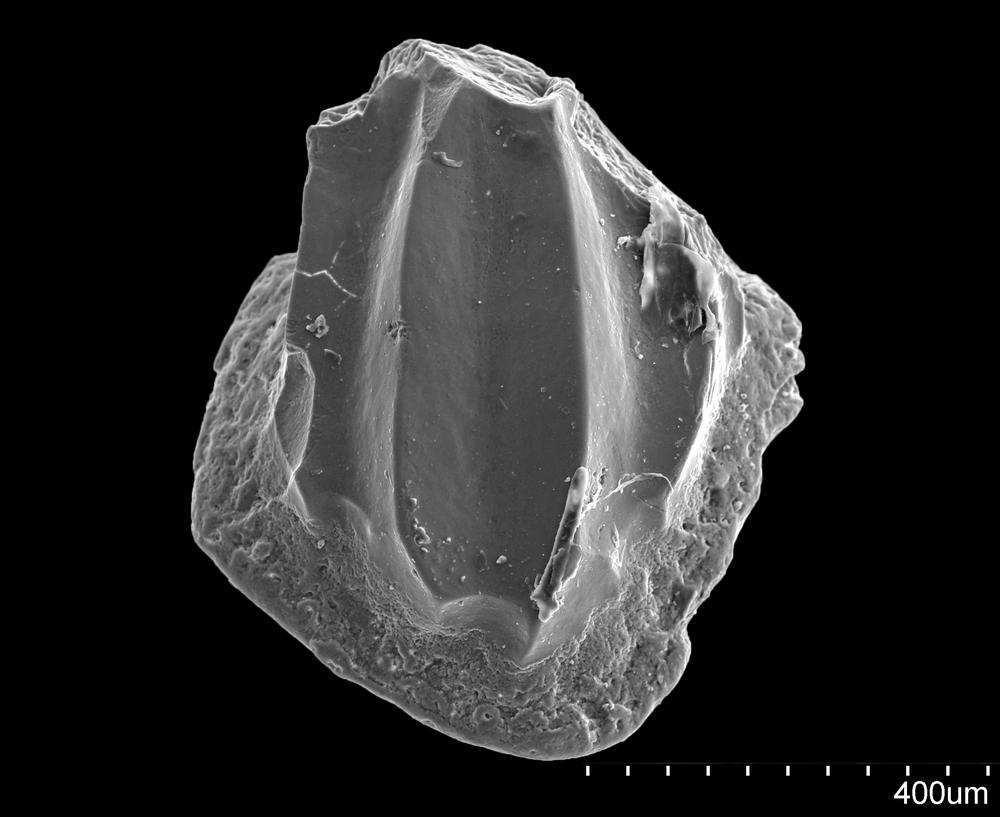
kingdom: Animalia
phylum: Chordata
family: Climatiidae
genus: Nostolepis
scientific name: Nostolepis
